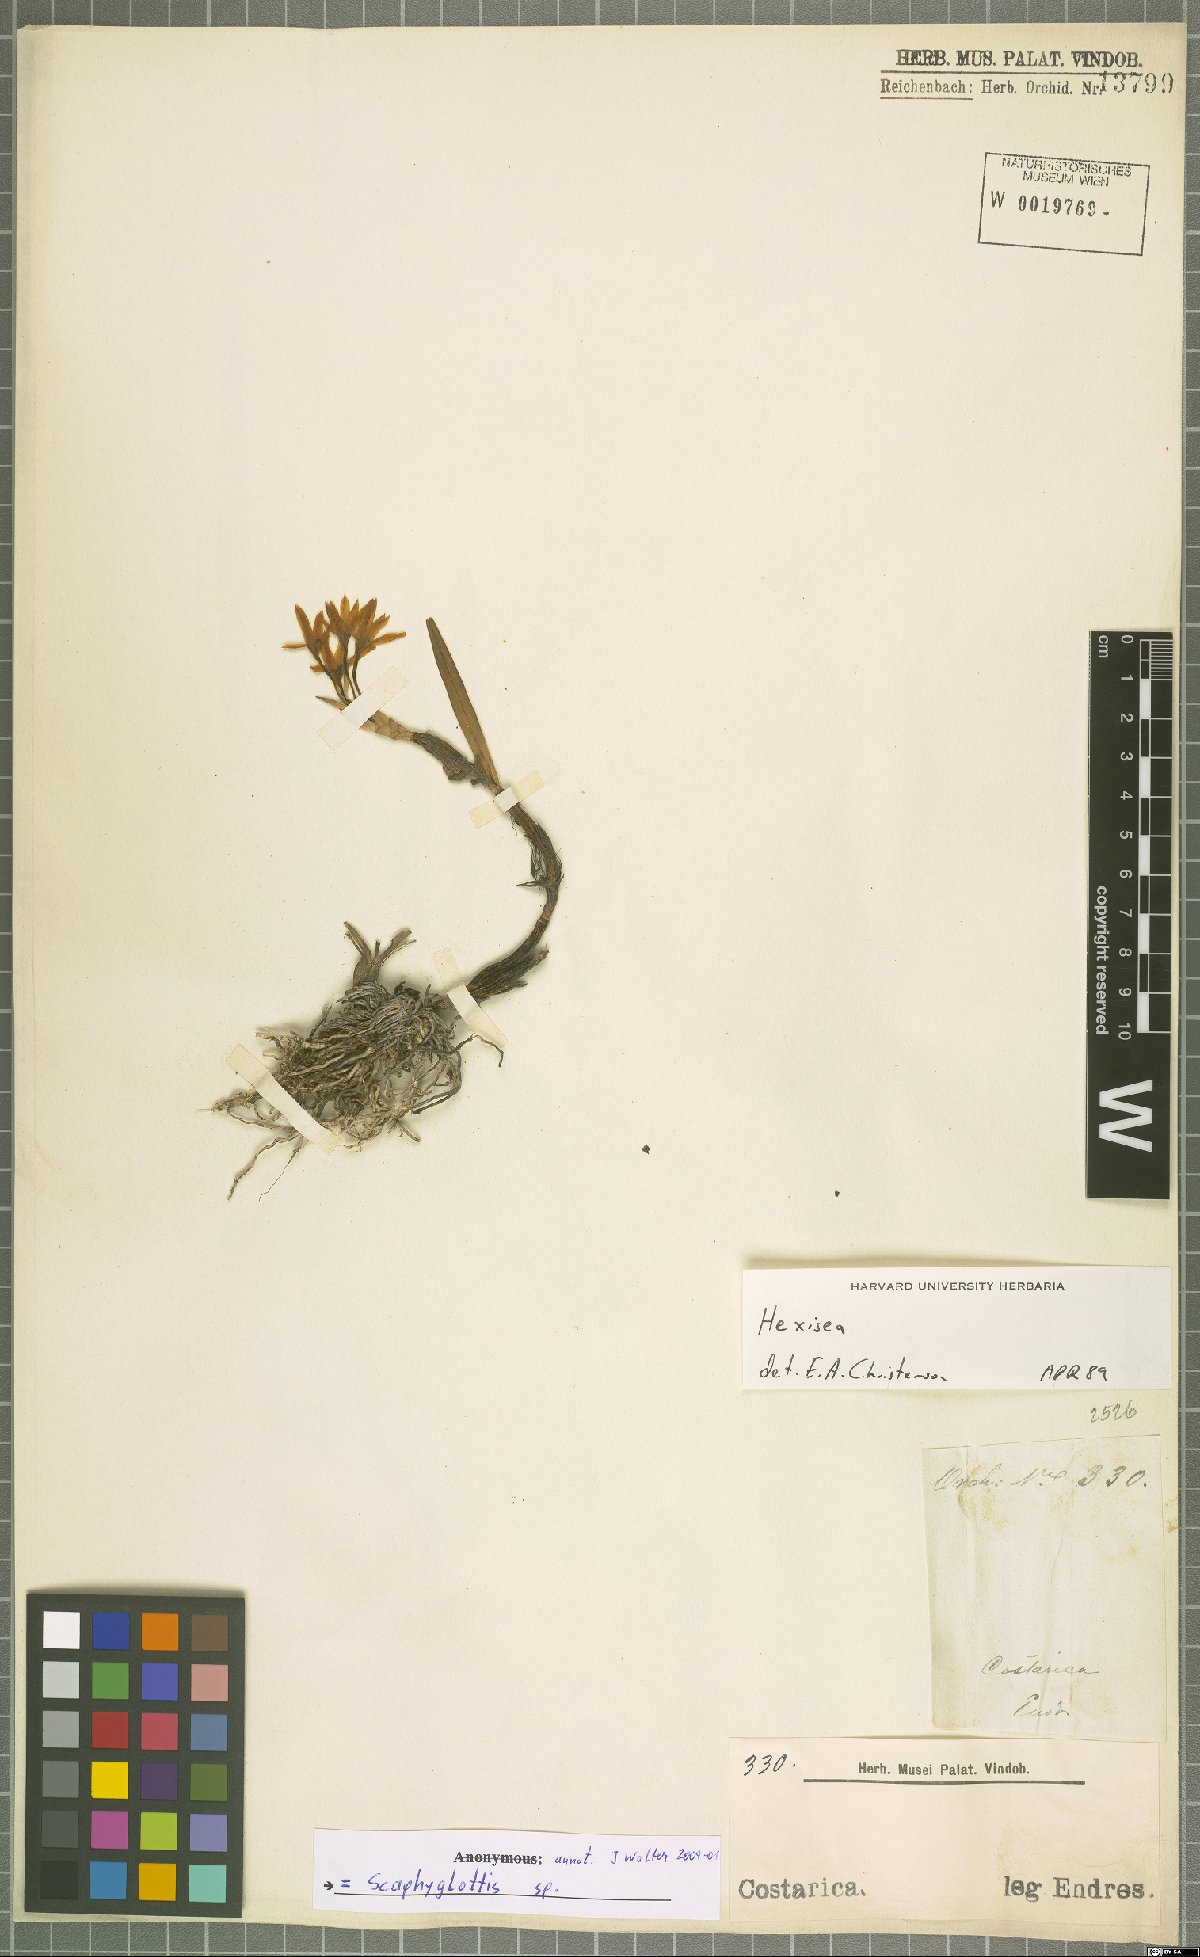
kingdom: Plantae
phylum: Tracheophyta
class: Liliopsida
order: Asparagales
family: Orchidaceae
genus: Scaphyglottis
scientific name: Scaphyglottis
